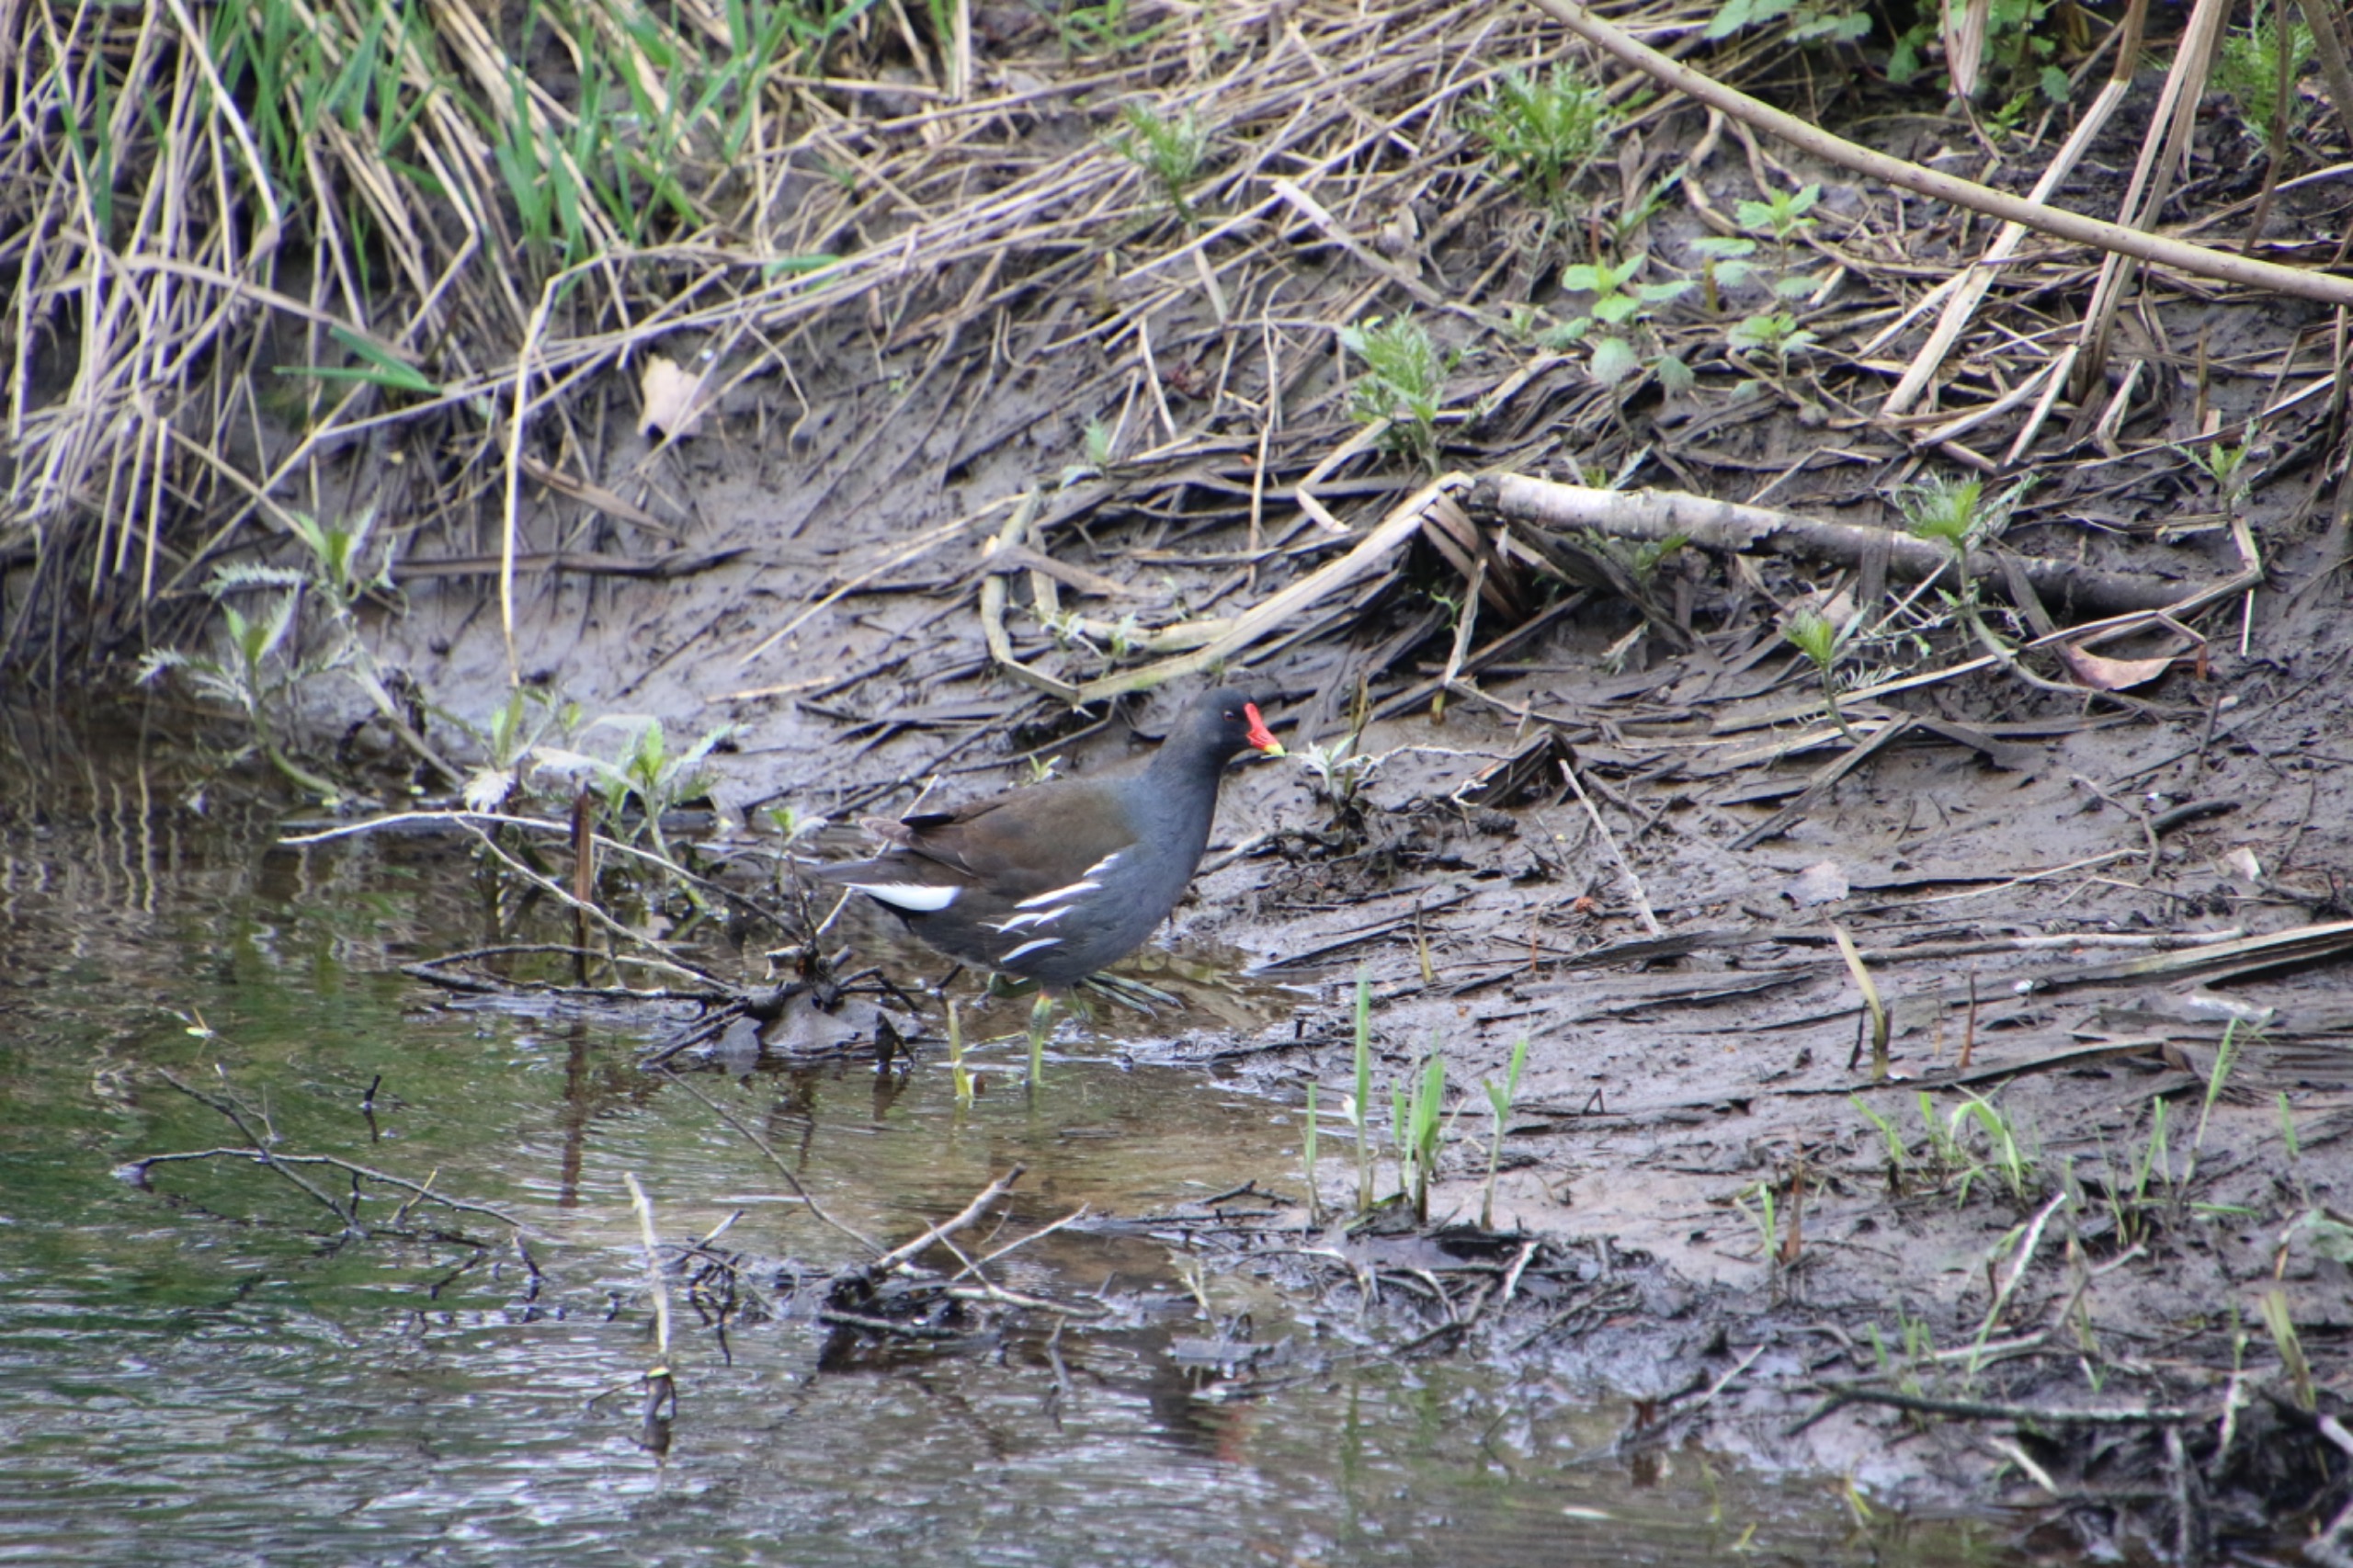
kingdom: Animalia
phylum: Chordata
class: Aves
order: Gruiformes
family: Rallidae
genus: Gallinula
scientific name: Gallinula chloropus
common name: Grønbenet rørhøne
